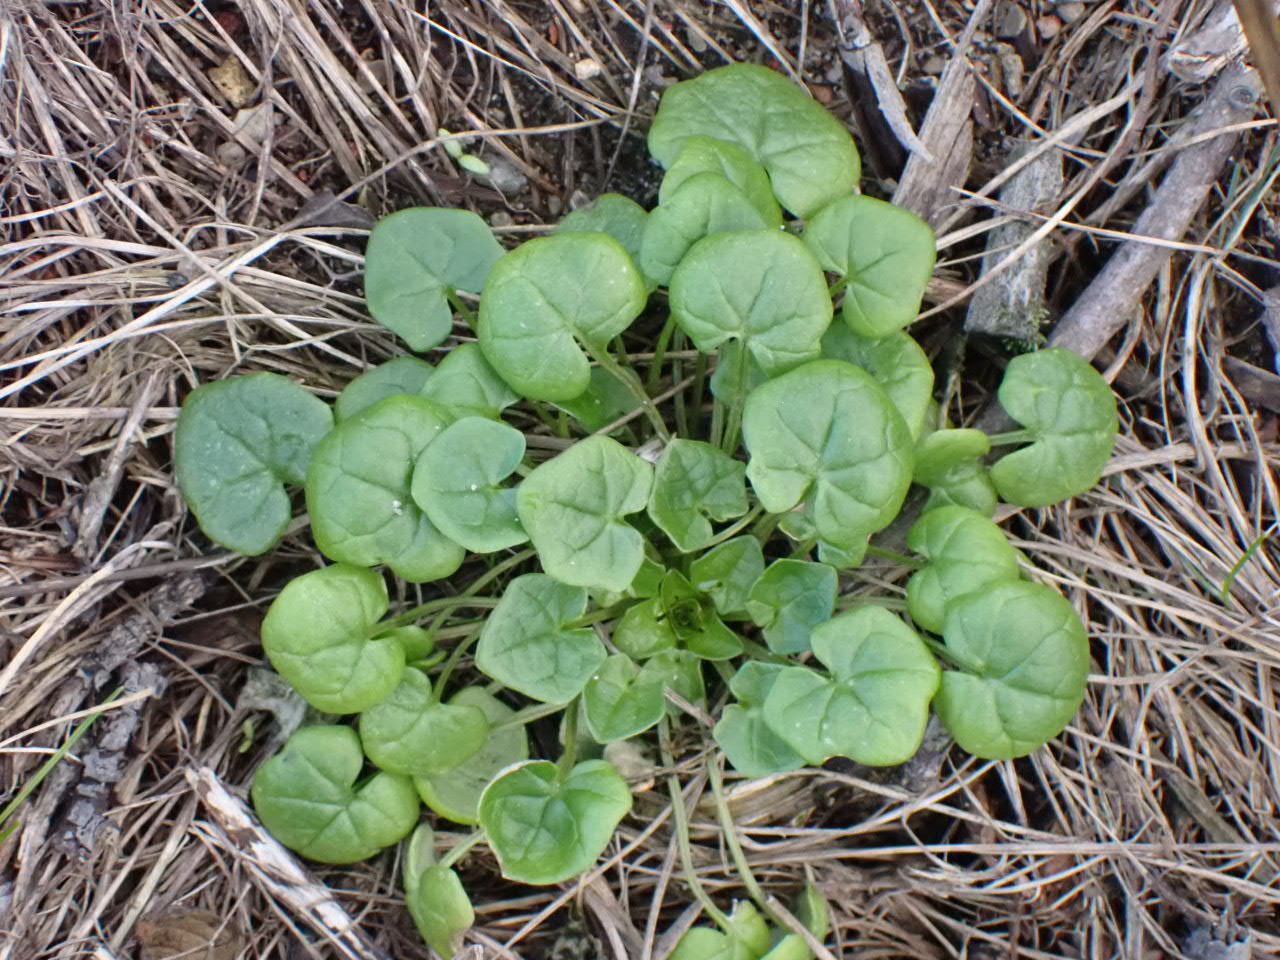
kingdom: Plantae
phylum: Tracheophyta
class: Magnoliopsida
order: Brassicales
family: Brassicaceae
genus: Cochlearia
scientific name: Cochlearia officinalis
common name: Læge-kokleare (underart)
